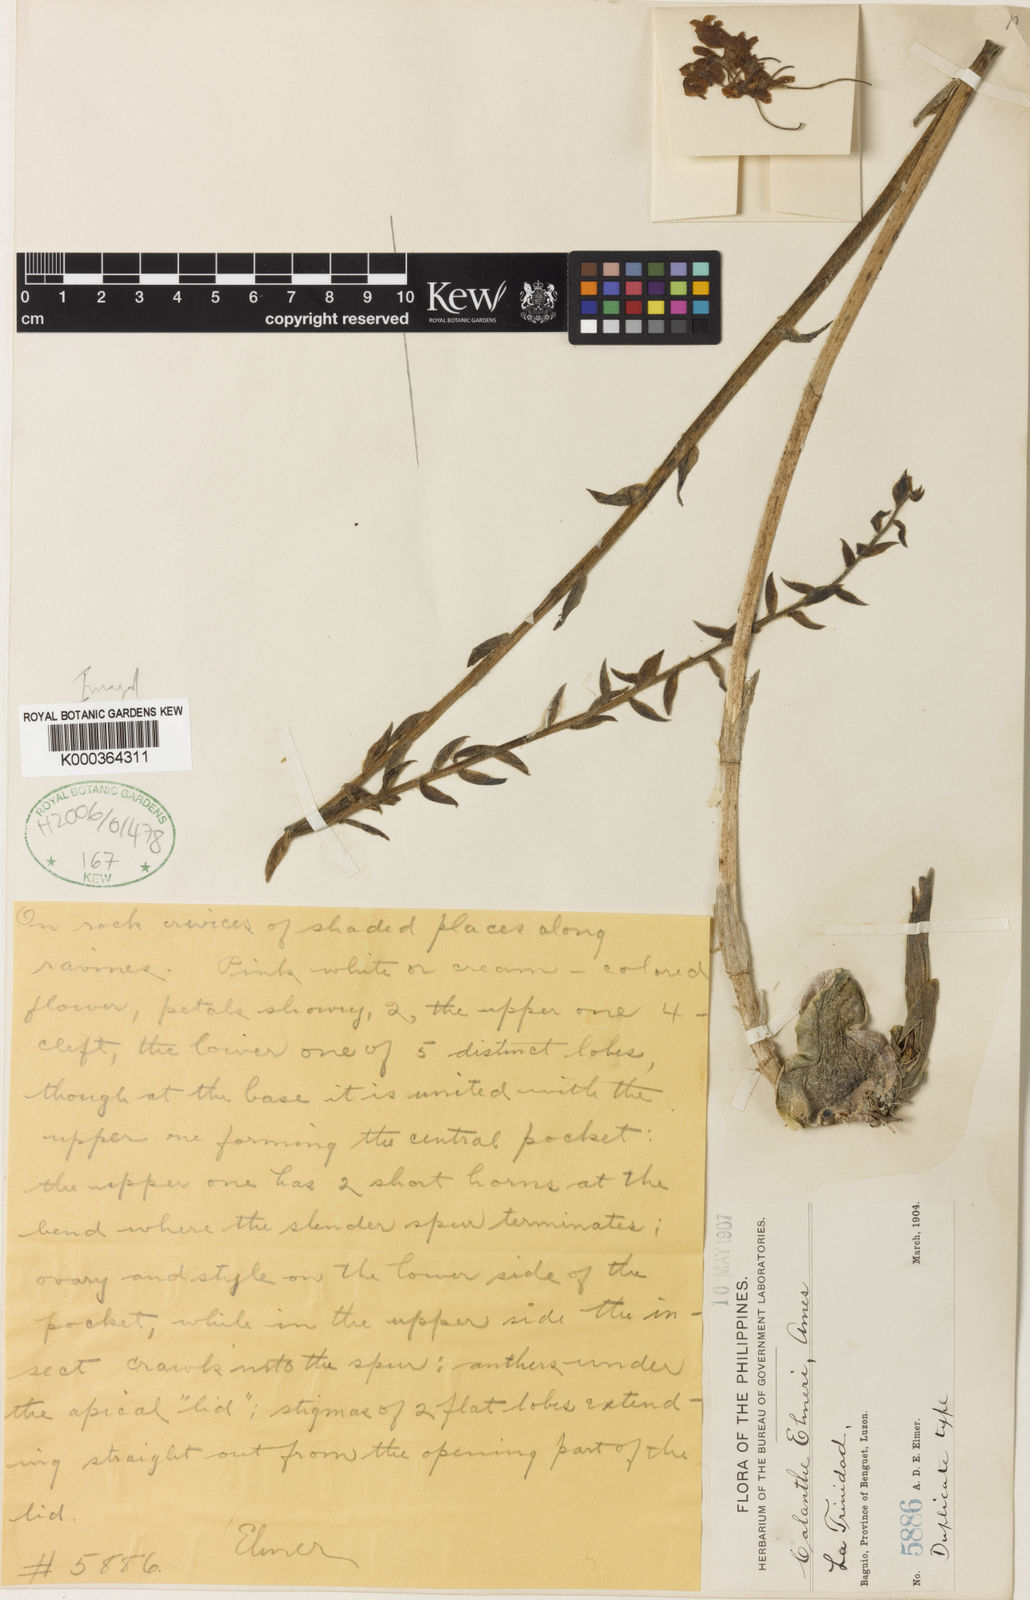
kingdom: Plantae
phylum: Tracheophyta
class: Liliopsida
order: Asparagales
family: Orchidaceae
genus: Calanthe
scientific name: Calanthe rubens
